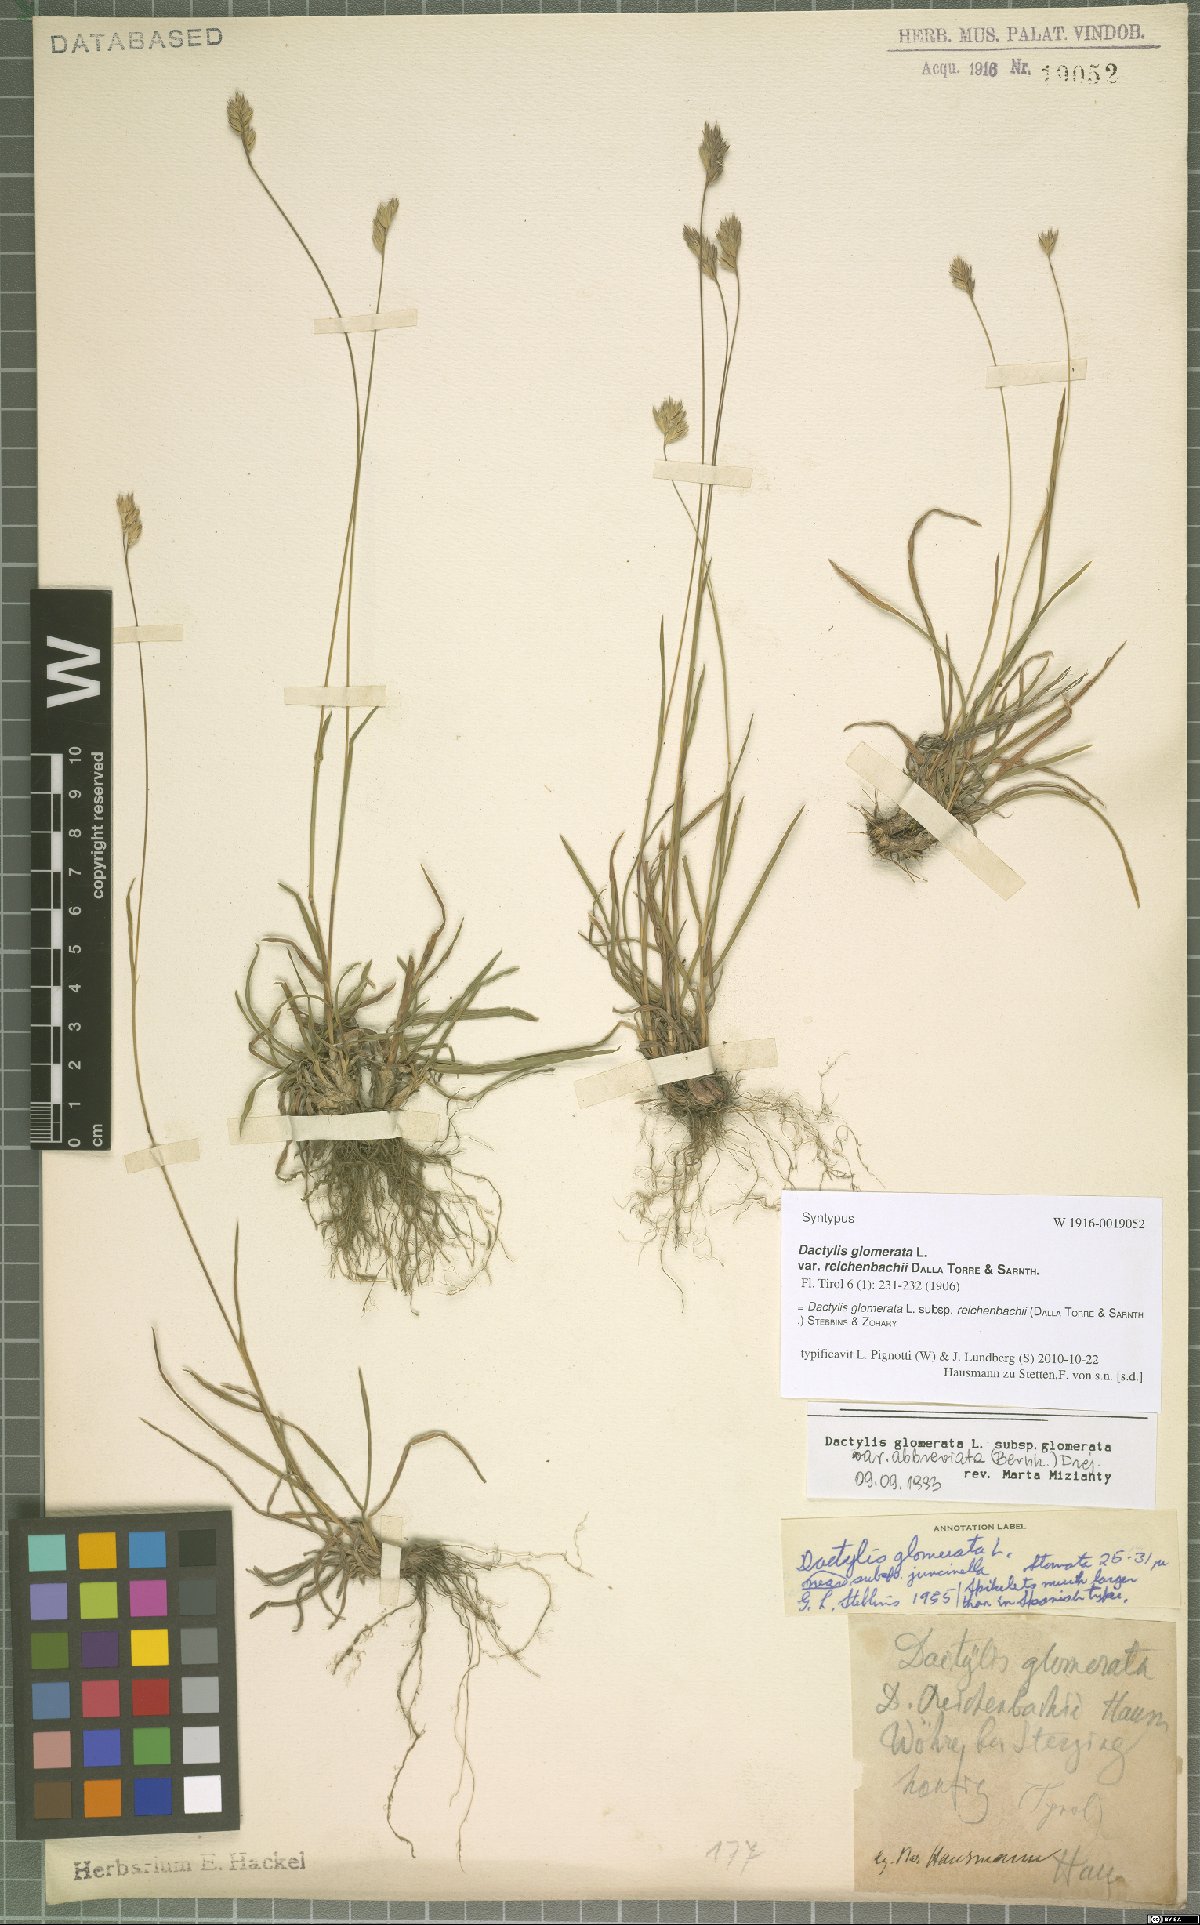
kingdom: Plantae
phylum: Tracheophyta
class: Liliopsida
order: Poales
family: Poaceae
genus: Dactylis
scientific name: Dactylis glomerata
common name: Orchardgrass
